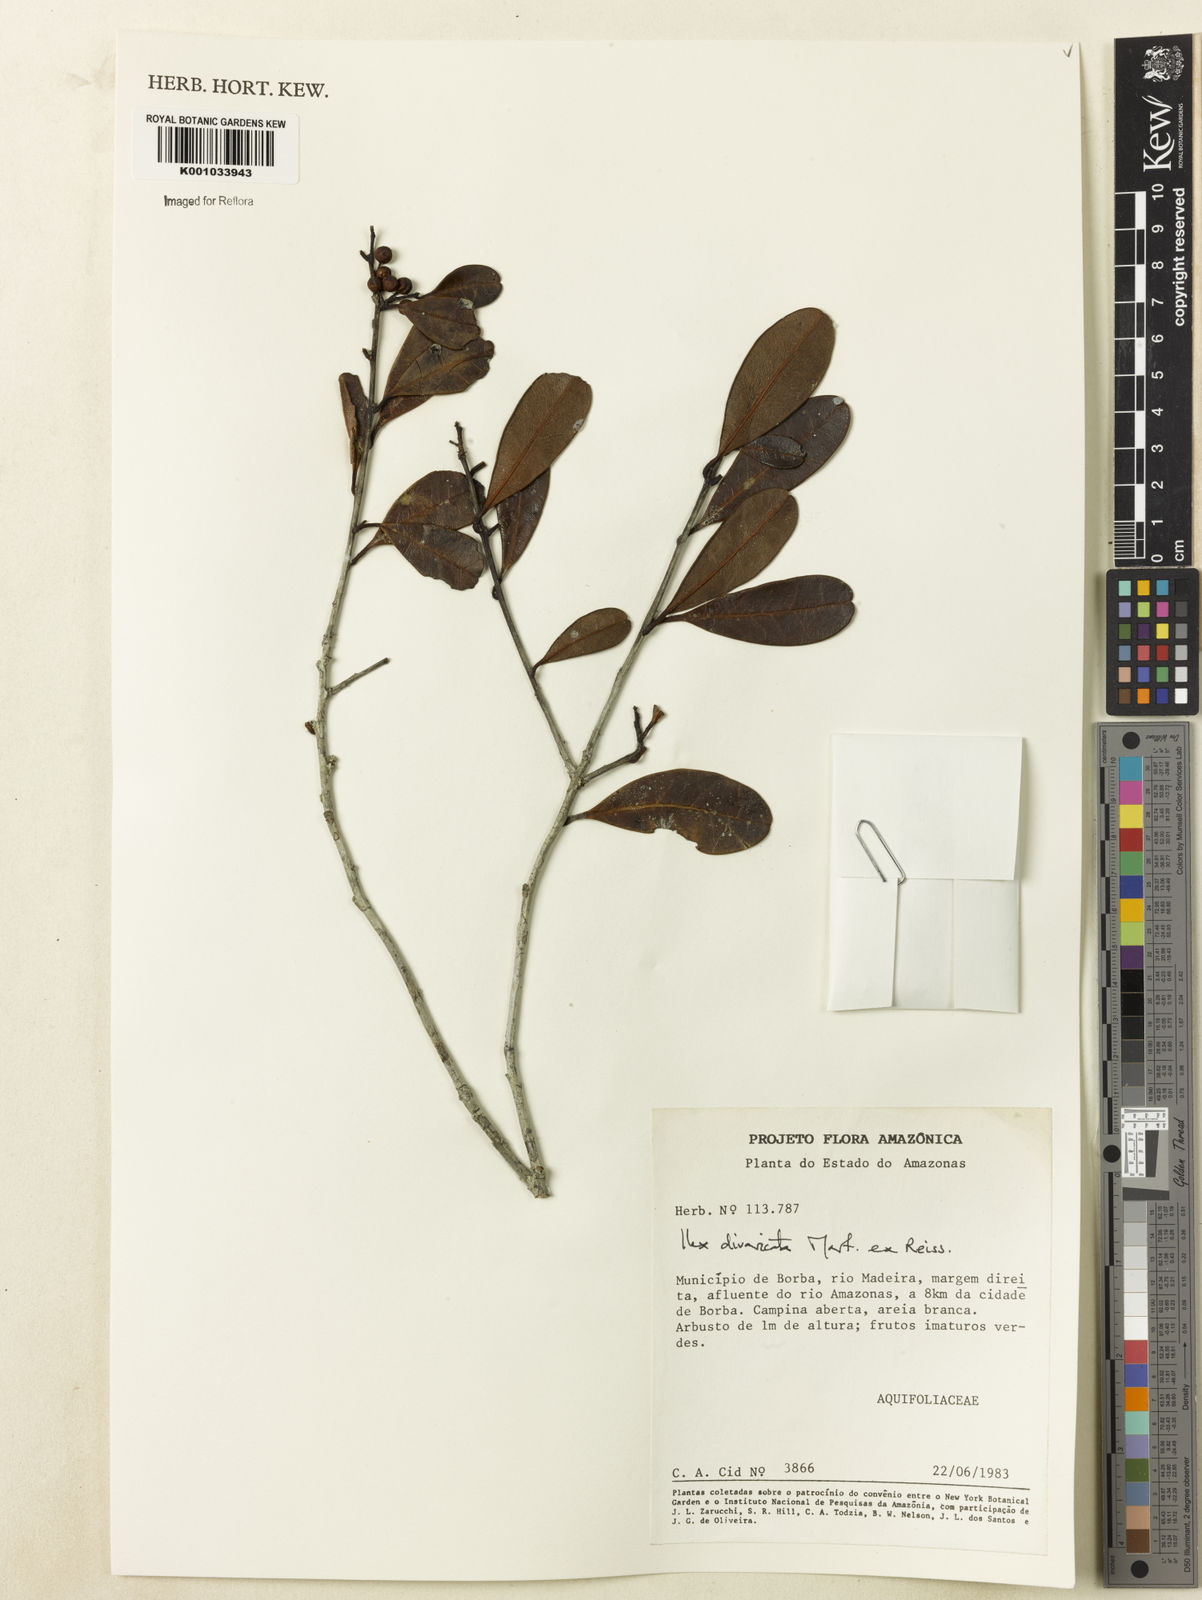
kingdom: Plantae
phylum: Tracheophyta
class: Magnoliopsida
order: Aquifoliales
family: Aquifoliaceae
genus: Ilex
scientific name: Ilex divaricata
